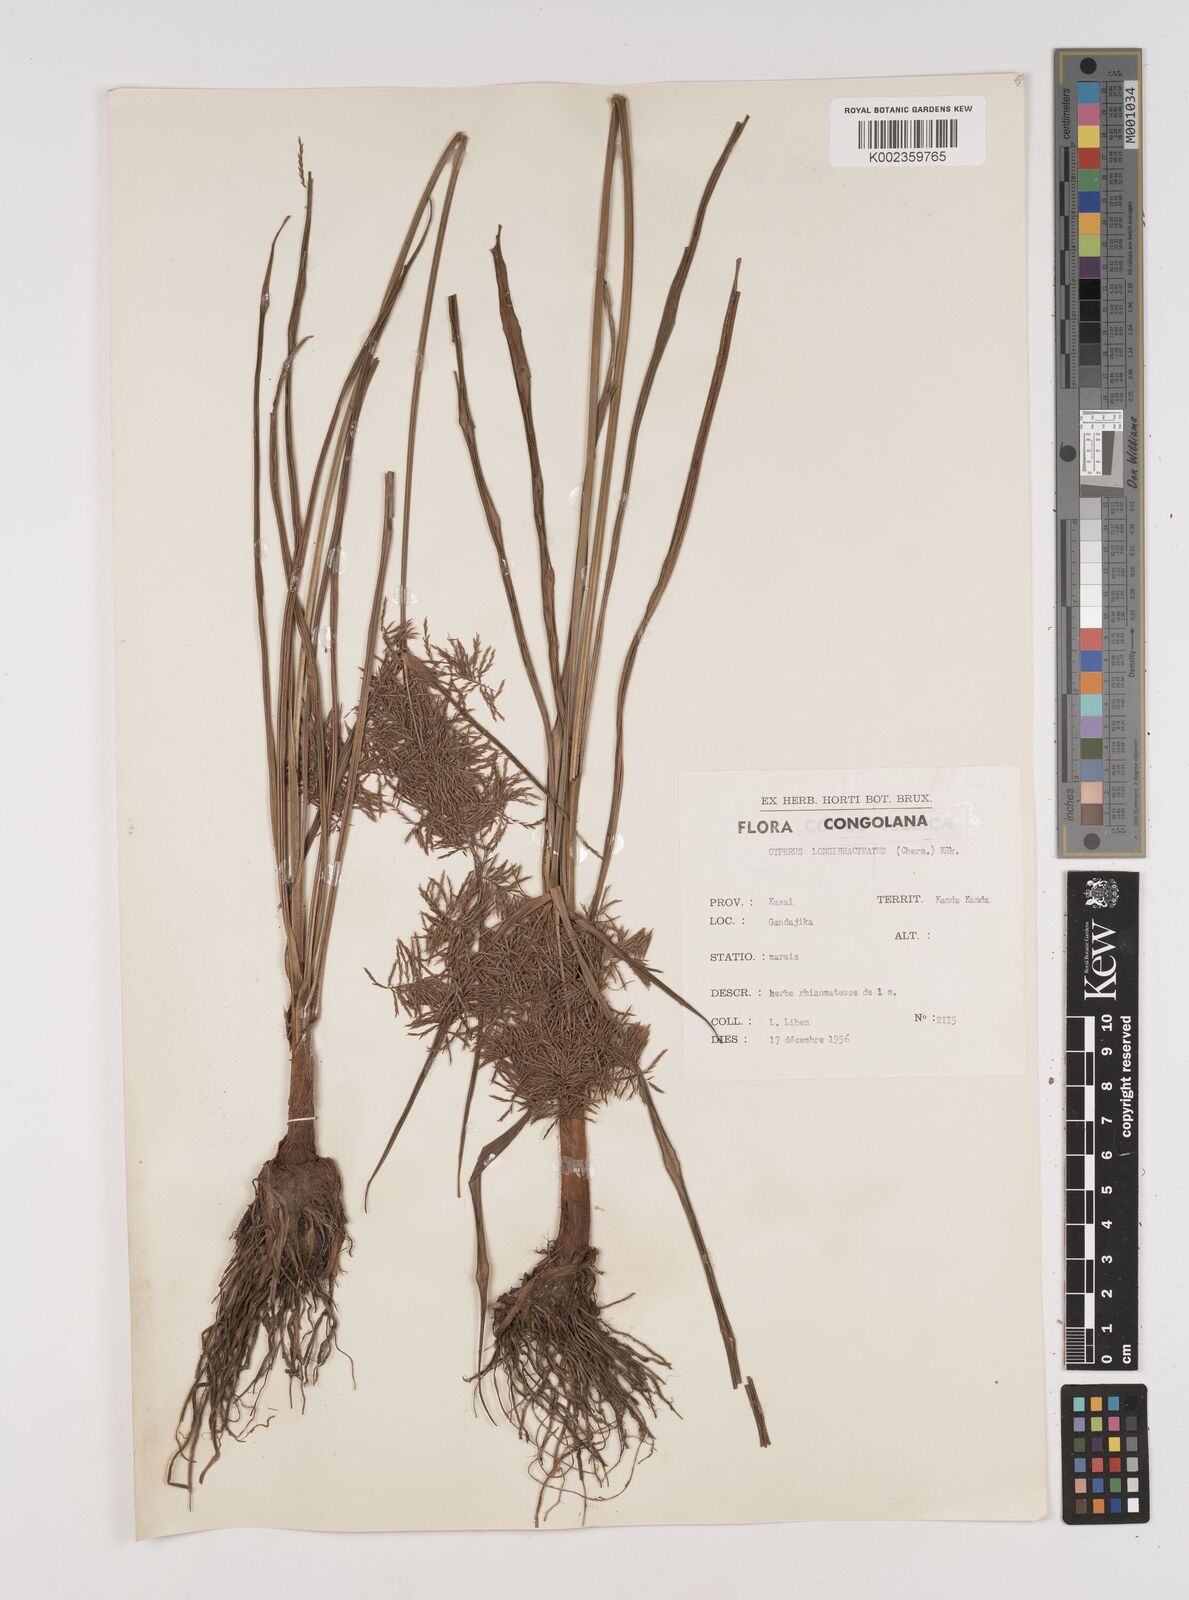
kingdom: Plantae
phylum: Tracheophyta
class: Liliopsida
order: Poales
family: Cyperaceae
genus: Cyperus
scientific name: Cyperus distans
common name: Slender cyperus
